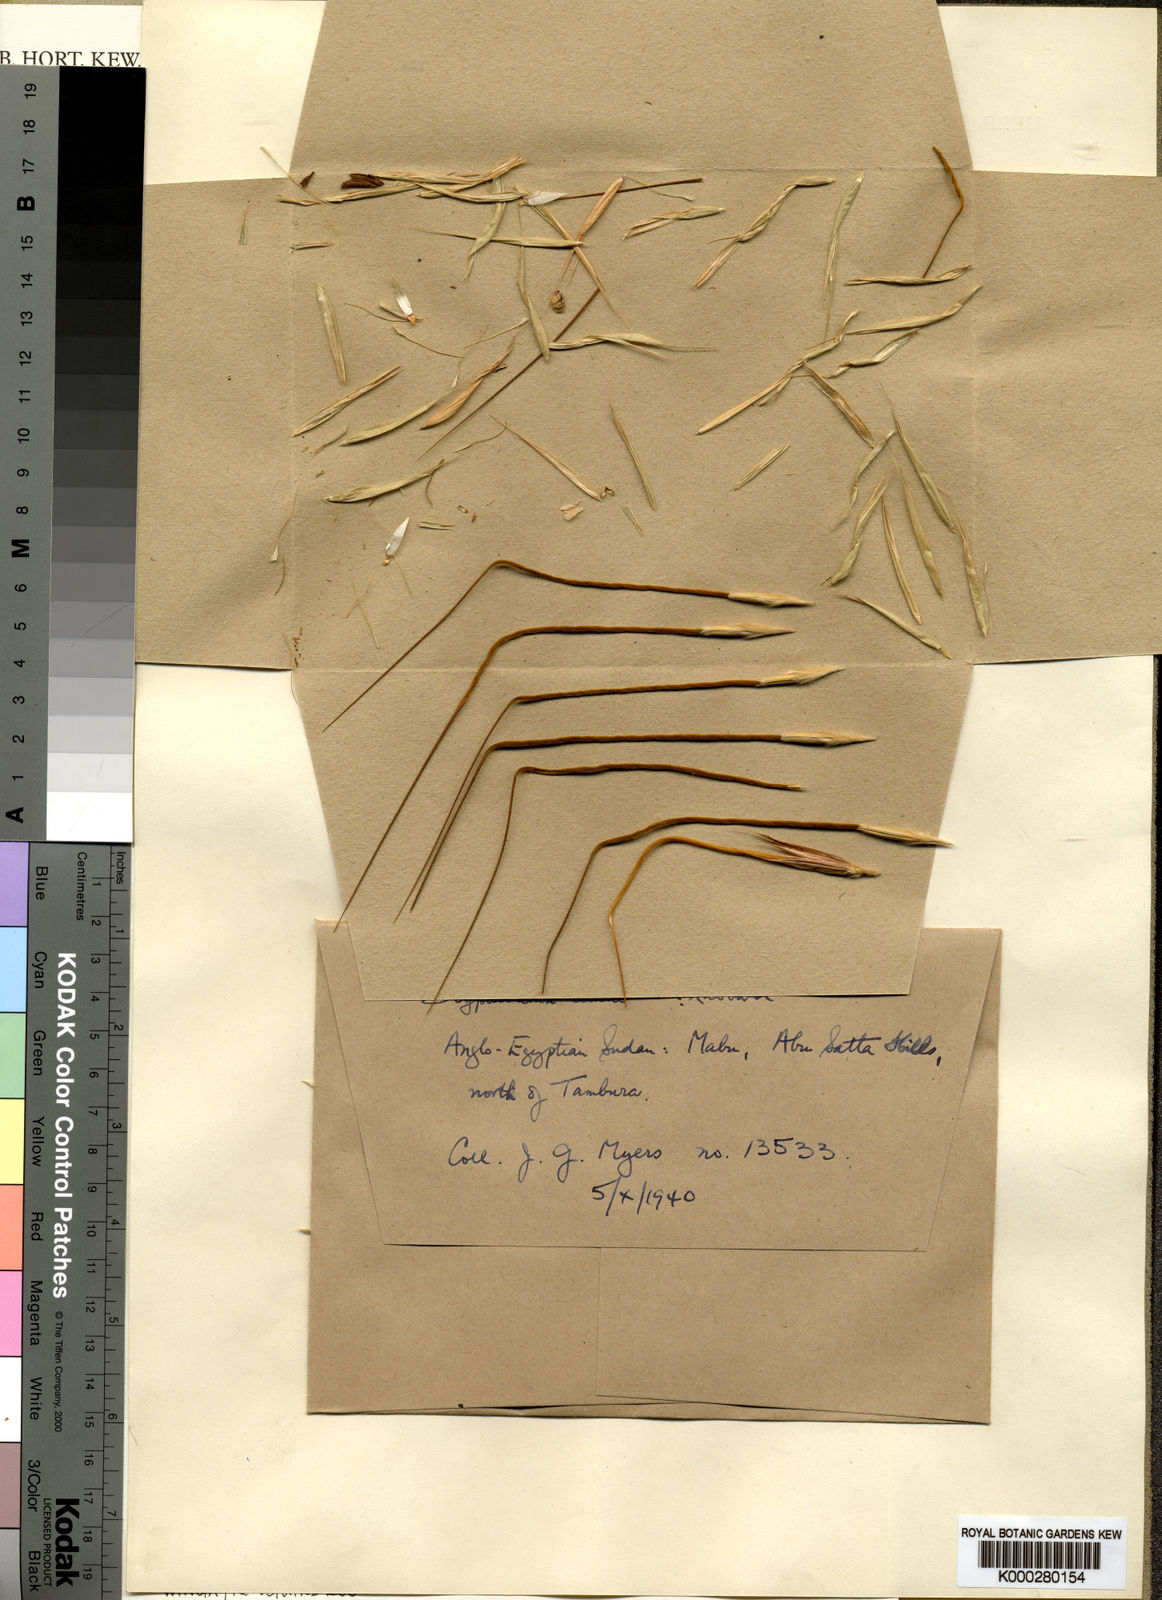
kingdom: Plantae
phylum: Tracheophyta
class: Liliopsida
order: Poales
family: Poaceae
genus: Hyperthelia
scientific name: Hyperthelia edulis
